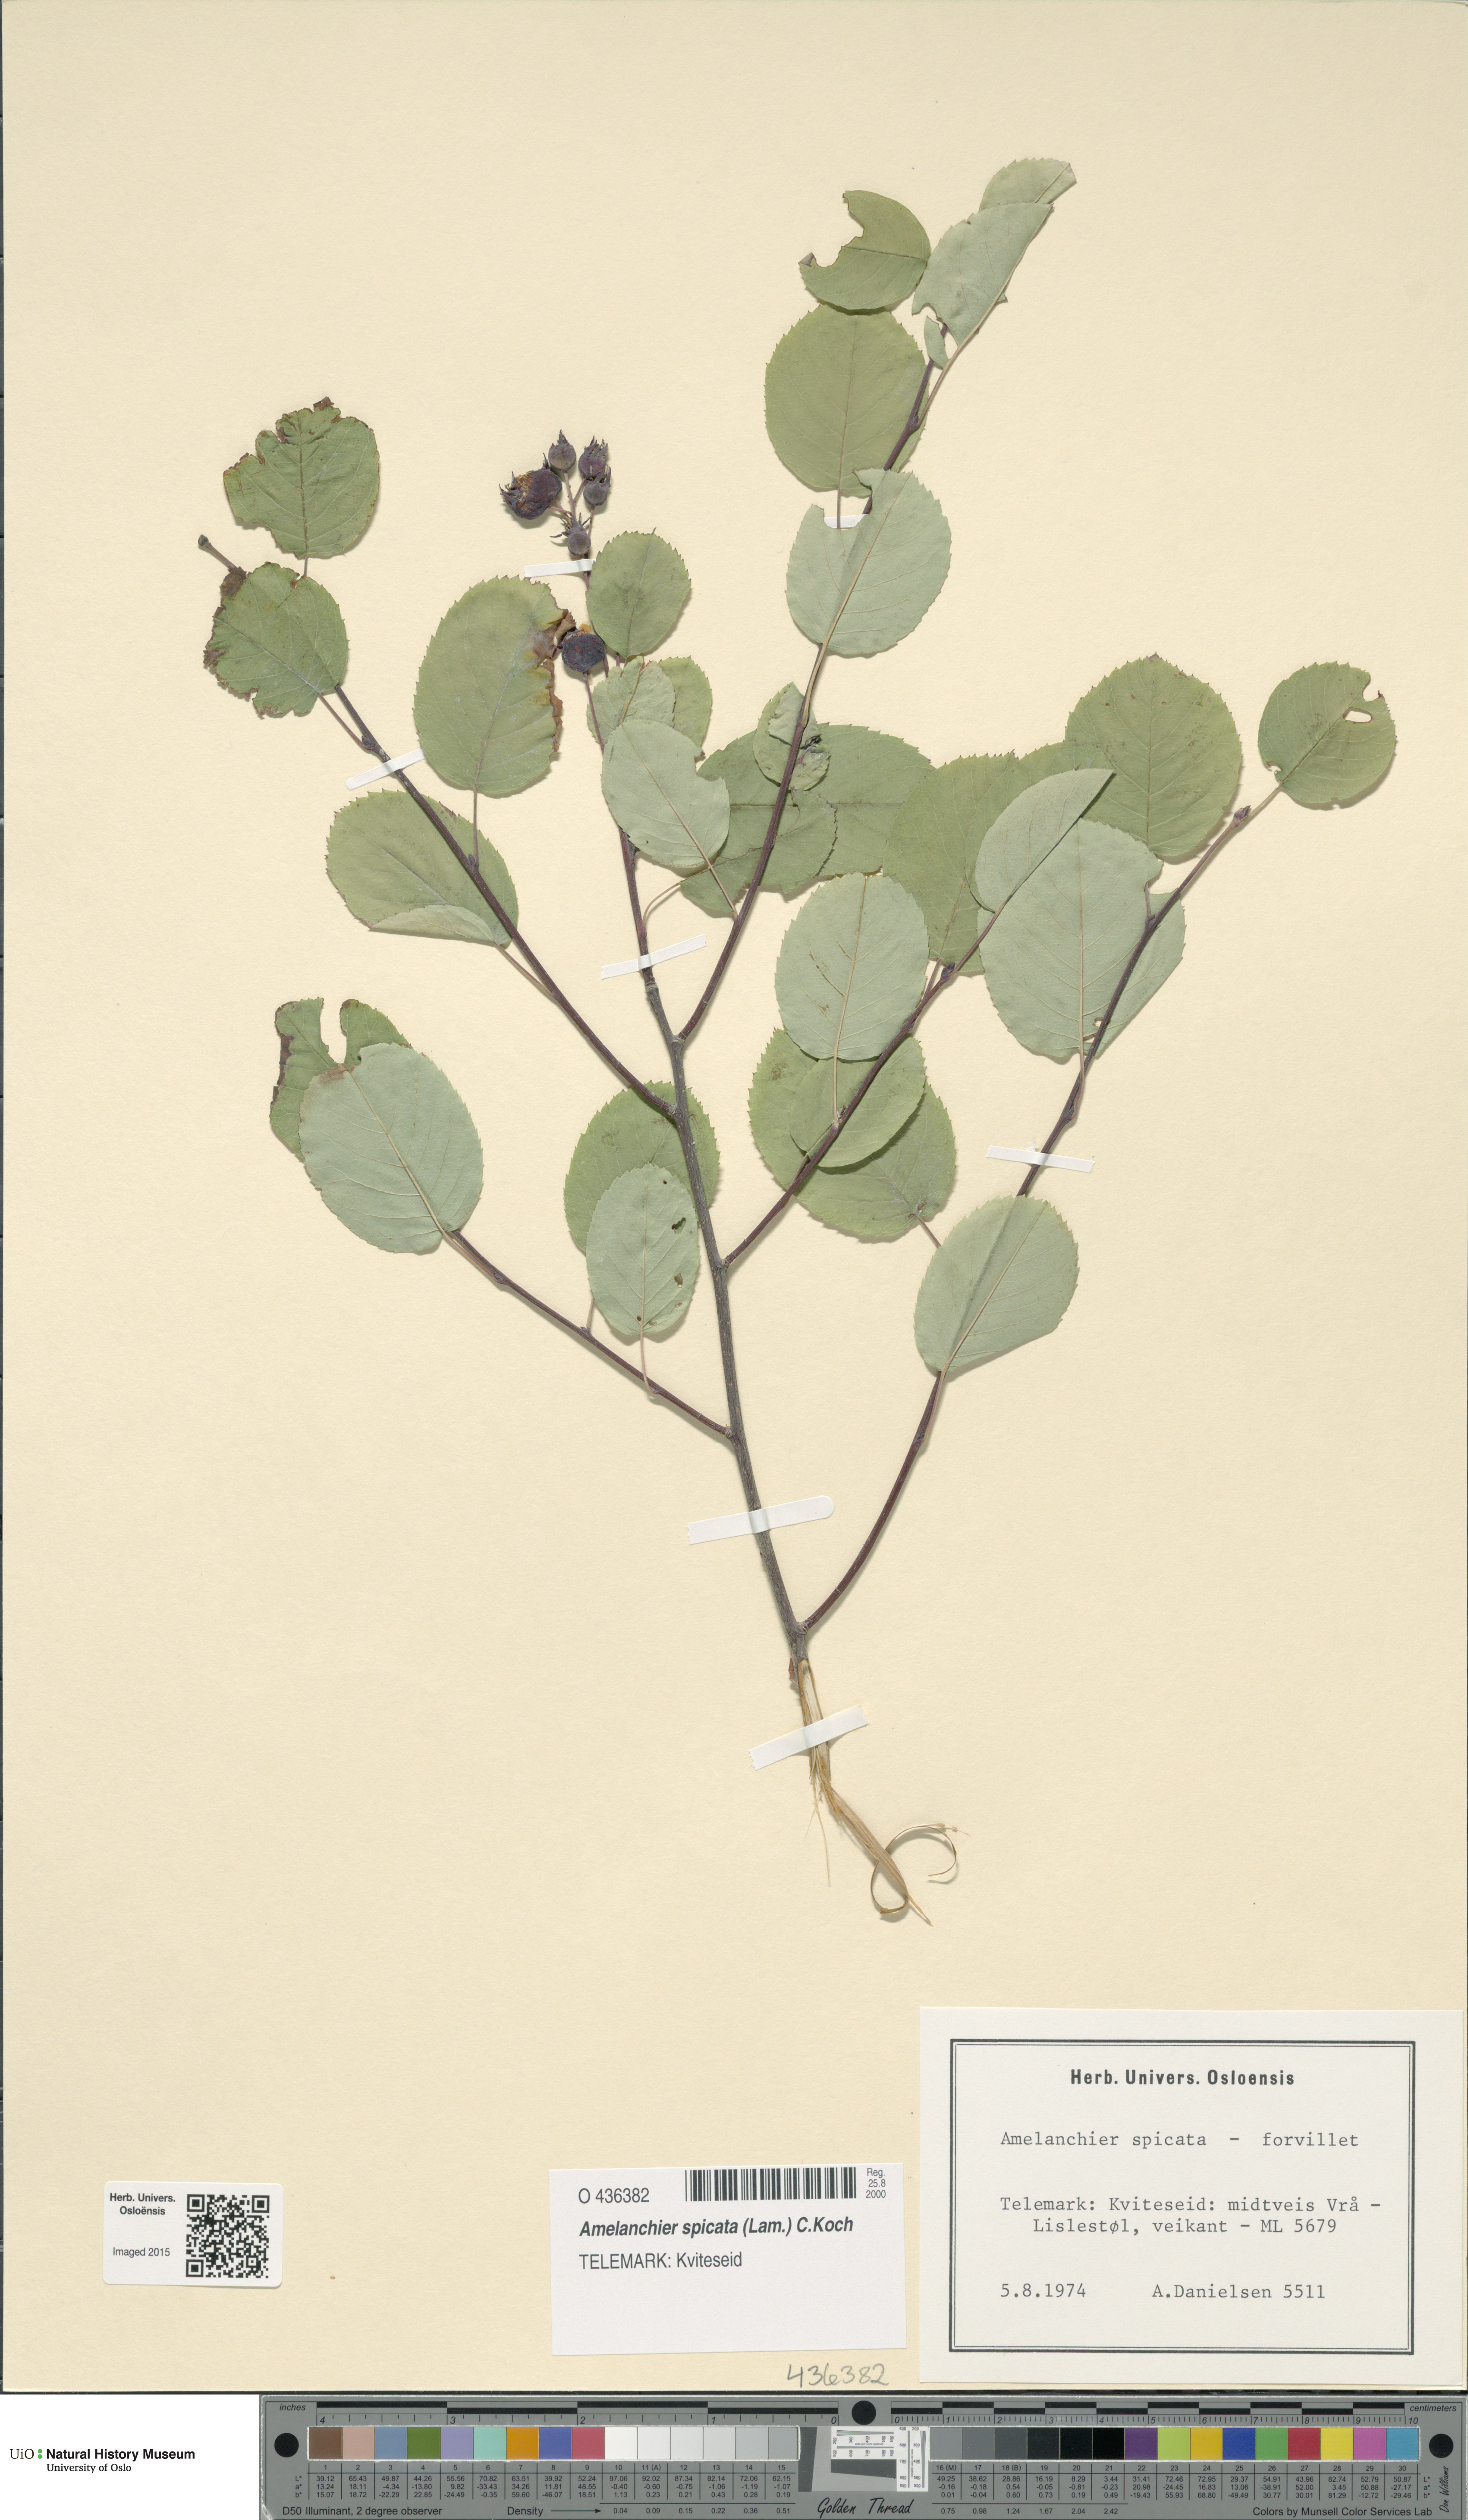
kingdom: Plantae
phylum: Tracheophyta
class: Magnoliopsida
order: Rosales
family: Rosaceae
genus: Amelanchier
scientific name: Amelanchier humilis
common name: Low juneberry
